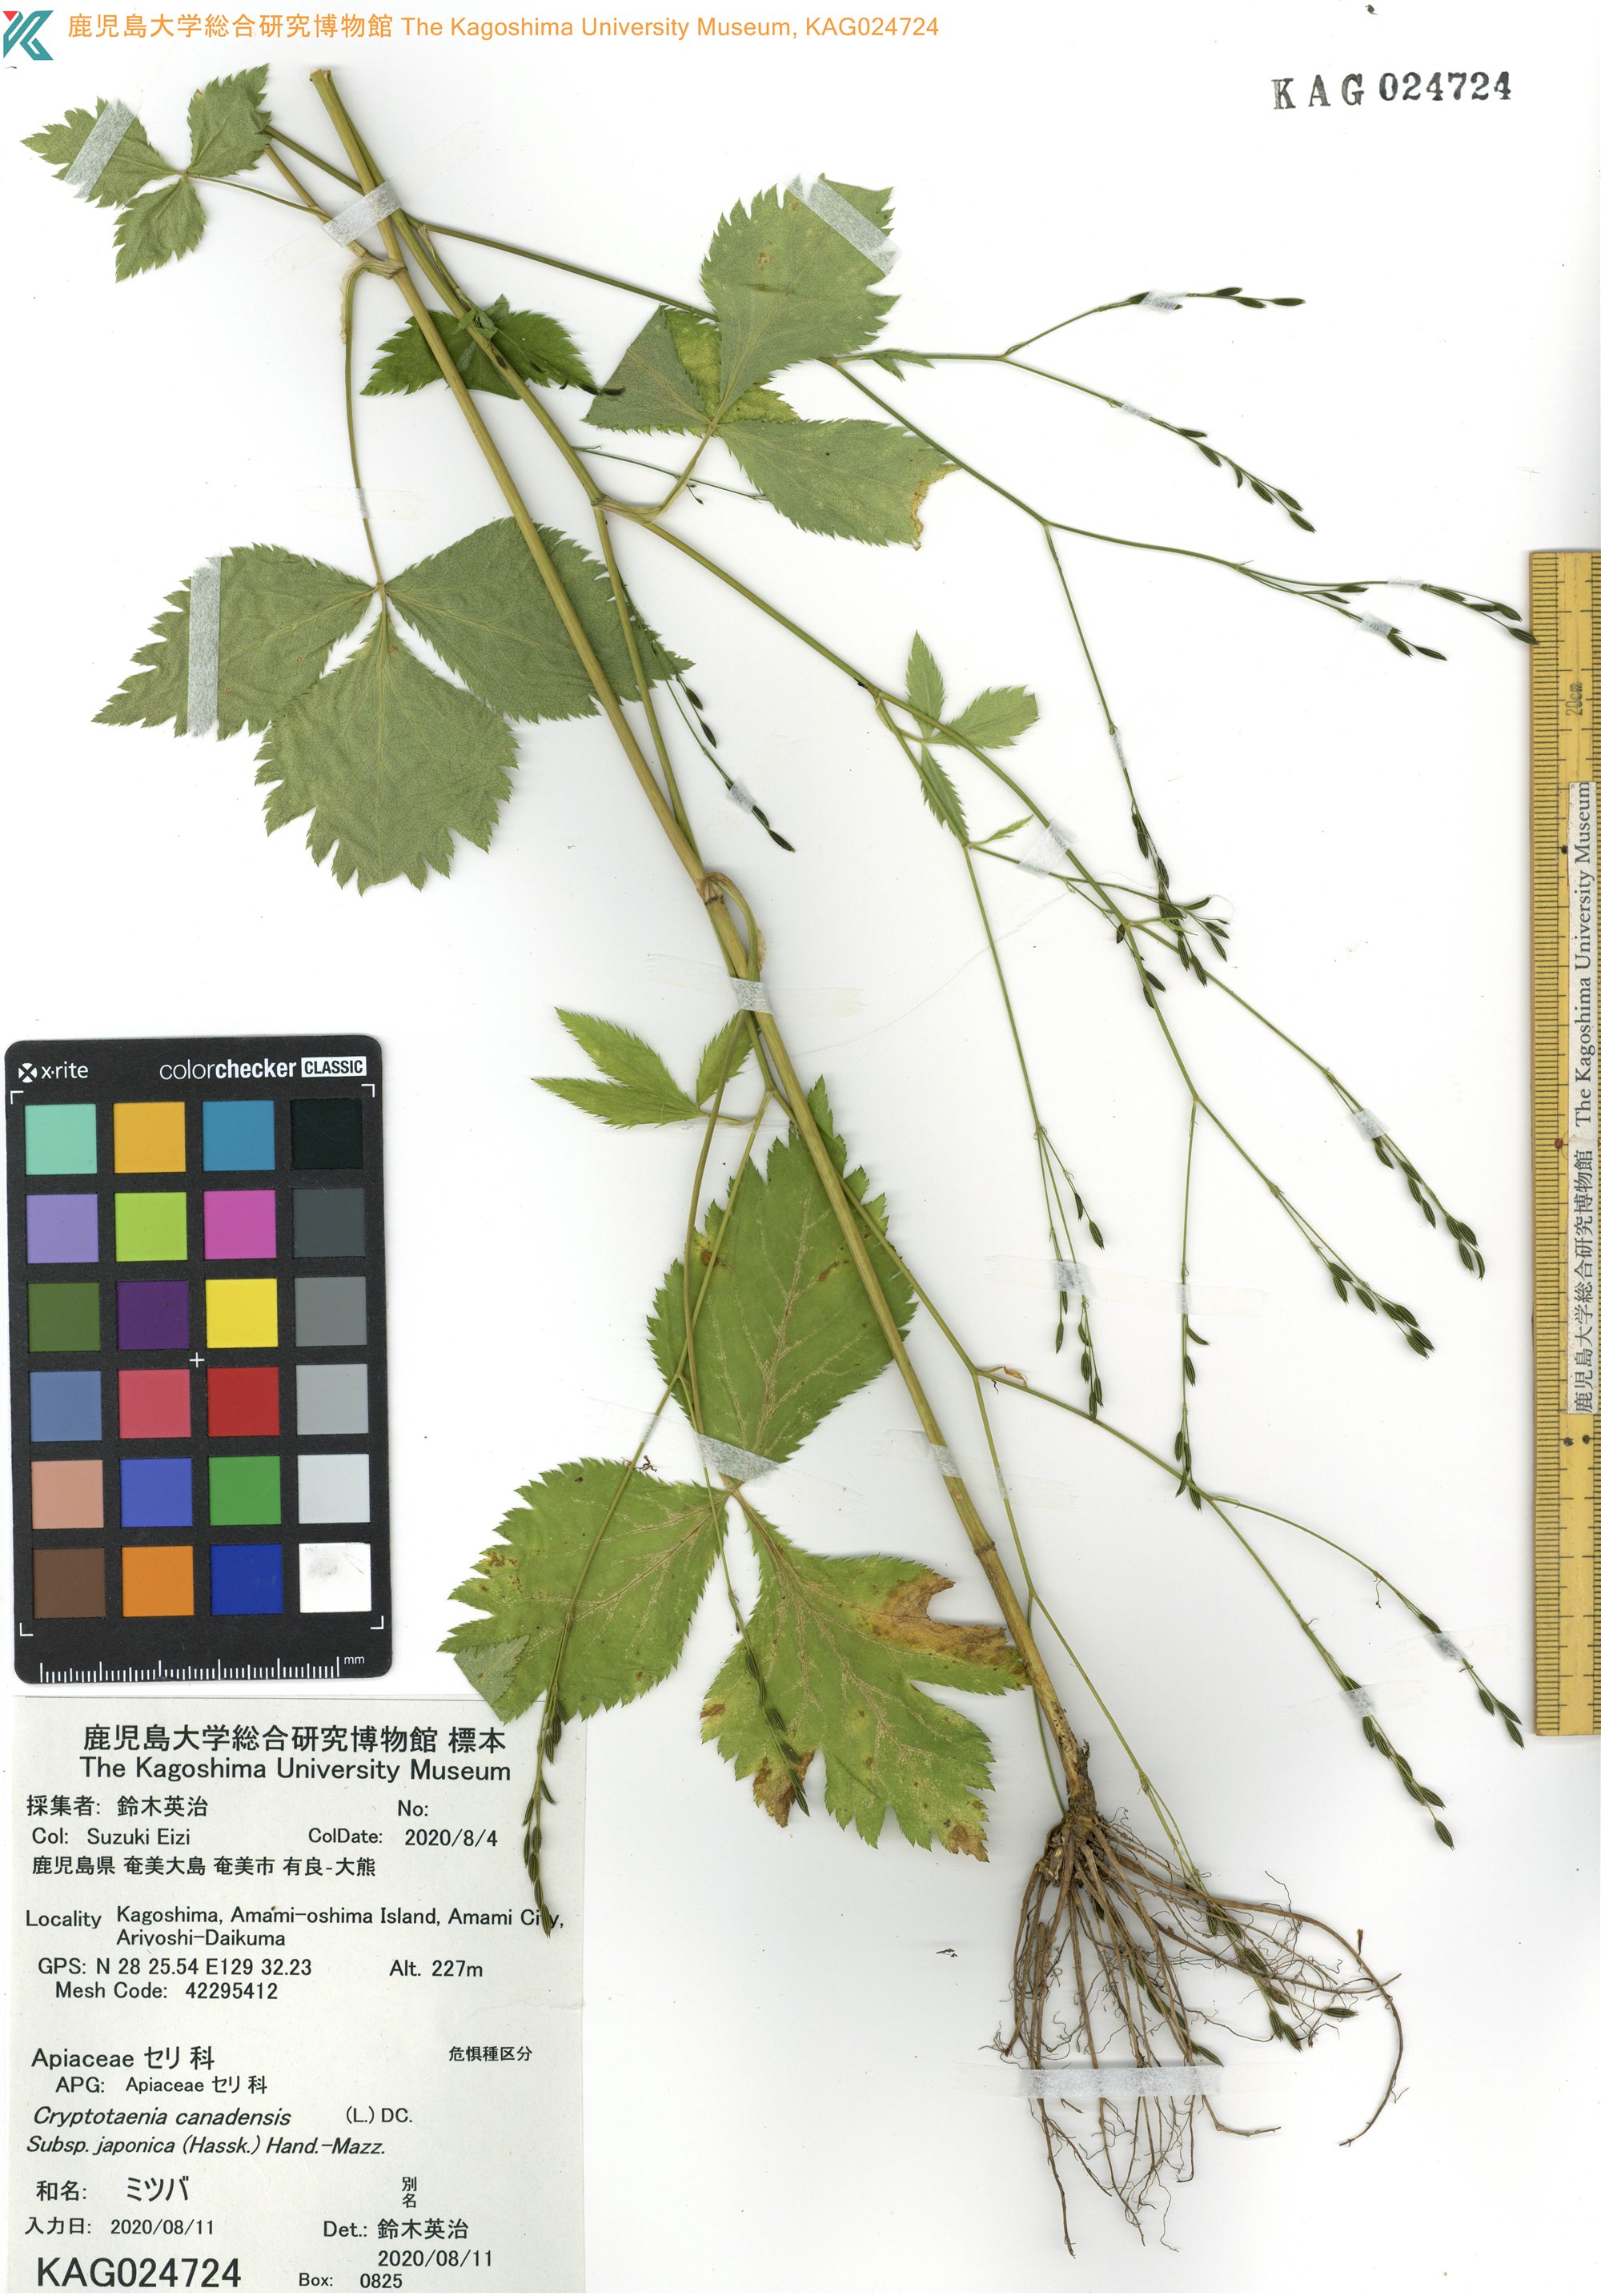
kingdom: Plantae
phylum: Tracheophyta
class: Magnoliopsida
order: Apiales
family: Apiaceae
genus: Cryptotaenia
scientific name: Cryptotaenia japonica
